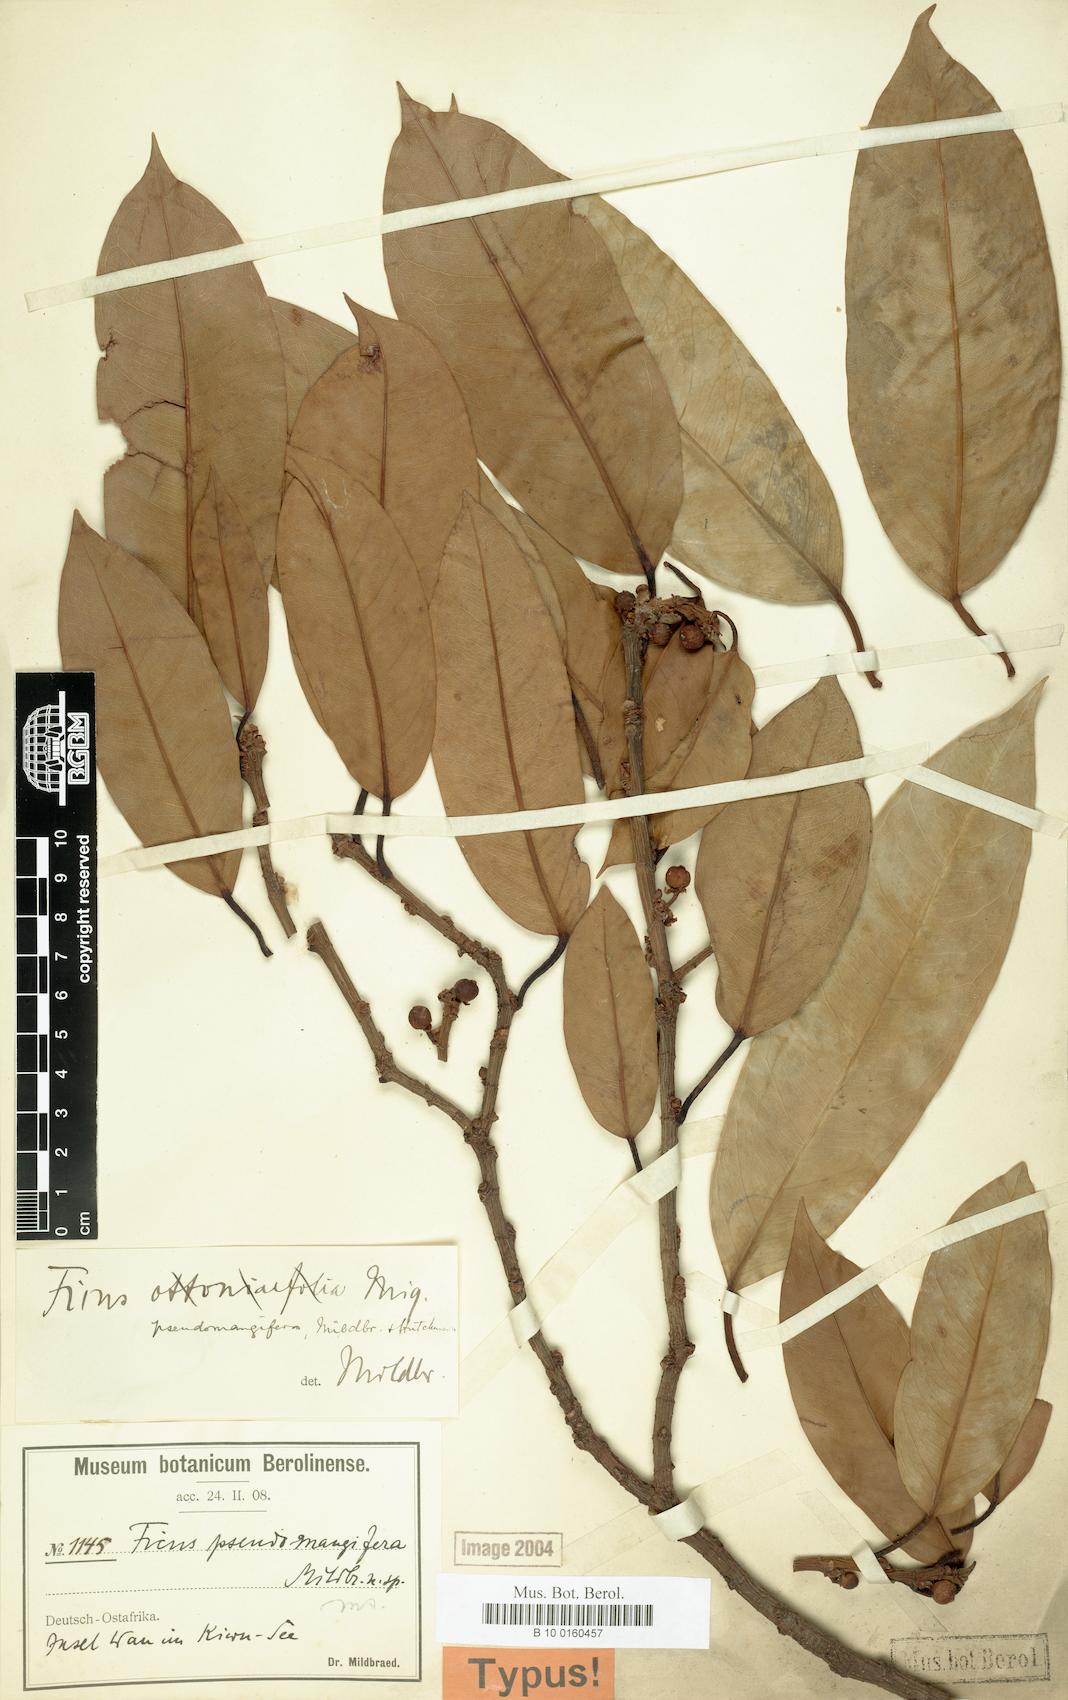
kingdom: Plantae
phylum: Tracheophyta
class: Magnoliopsida
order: Rosales
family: Moraceae
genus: Ficus
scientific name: Ficus pseudomangifera
